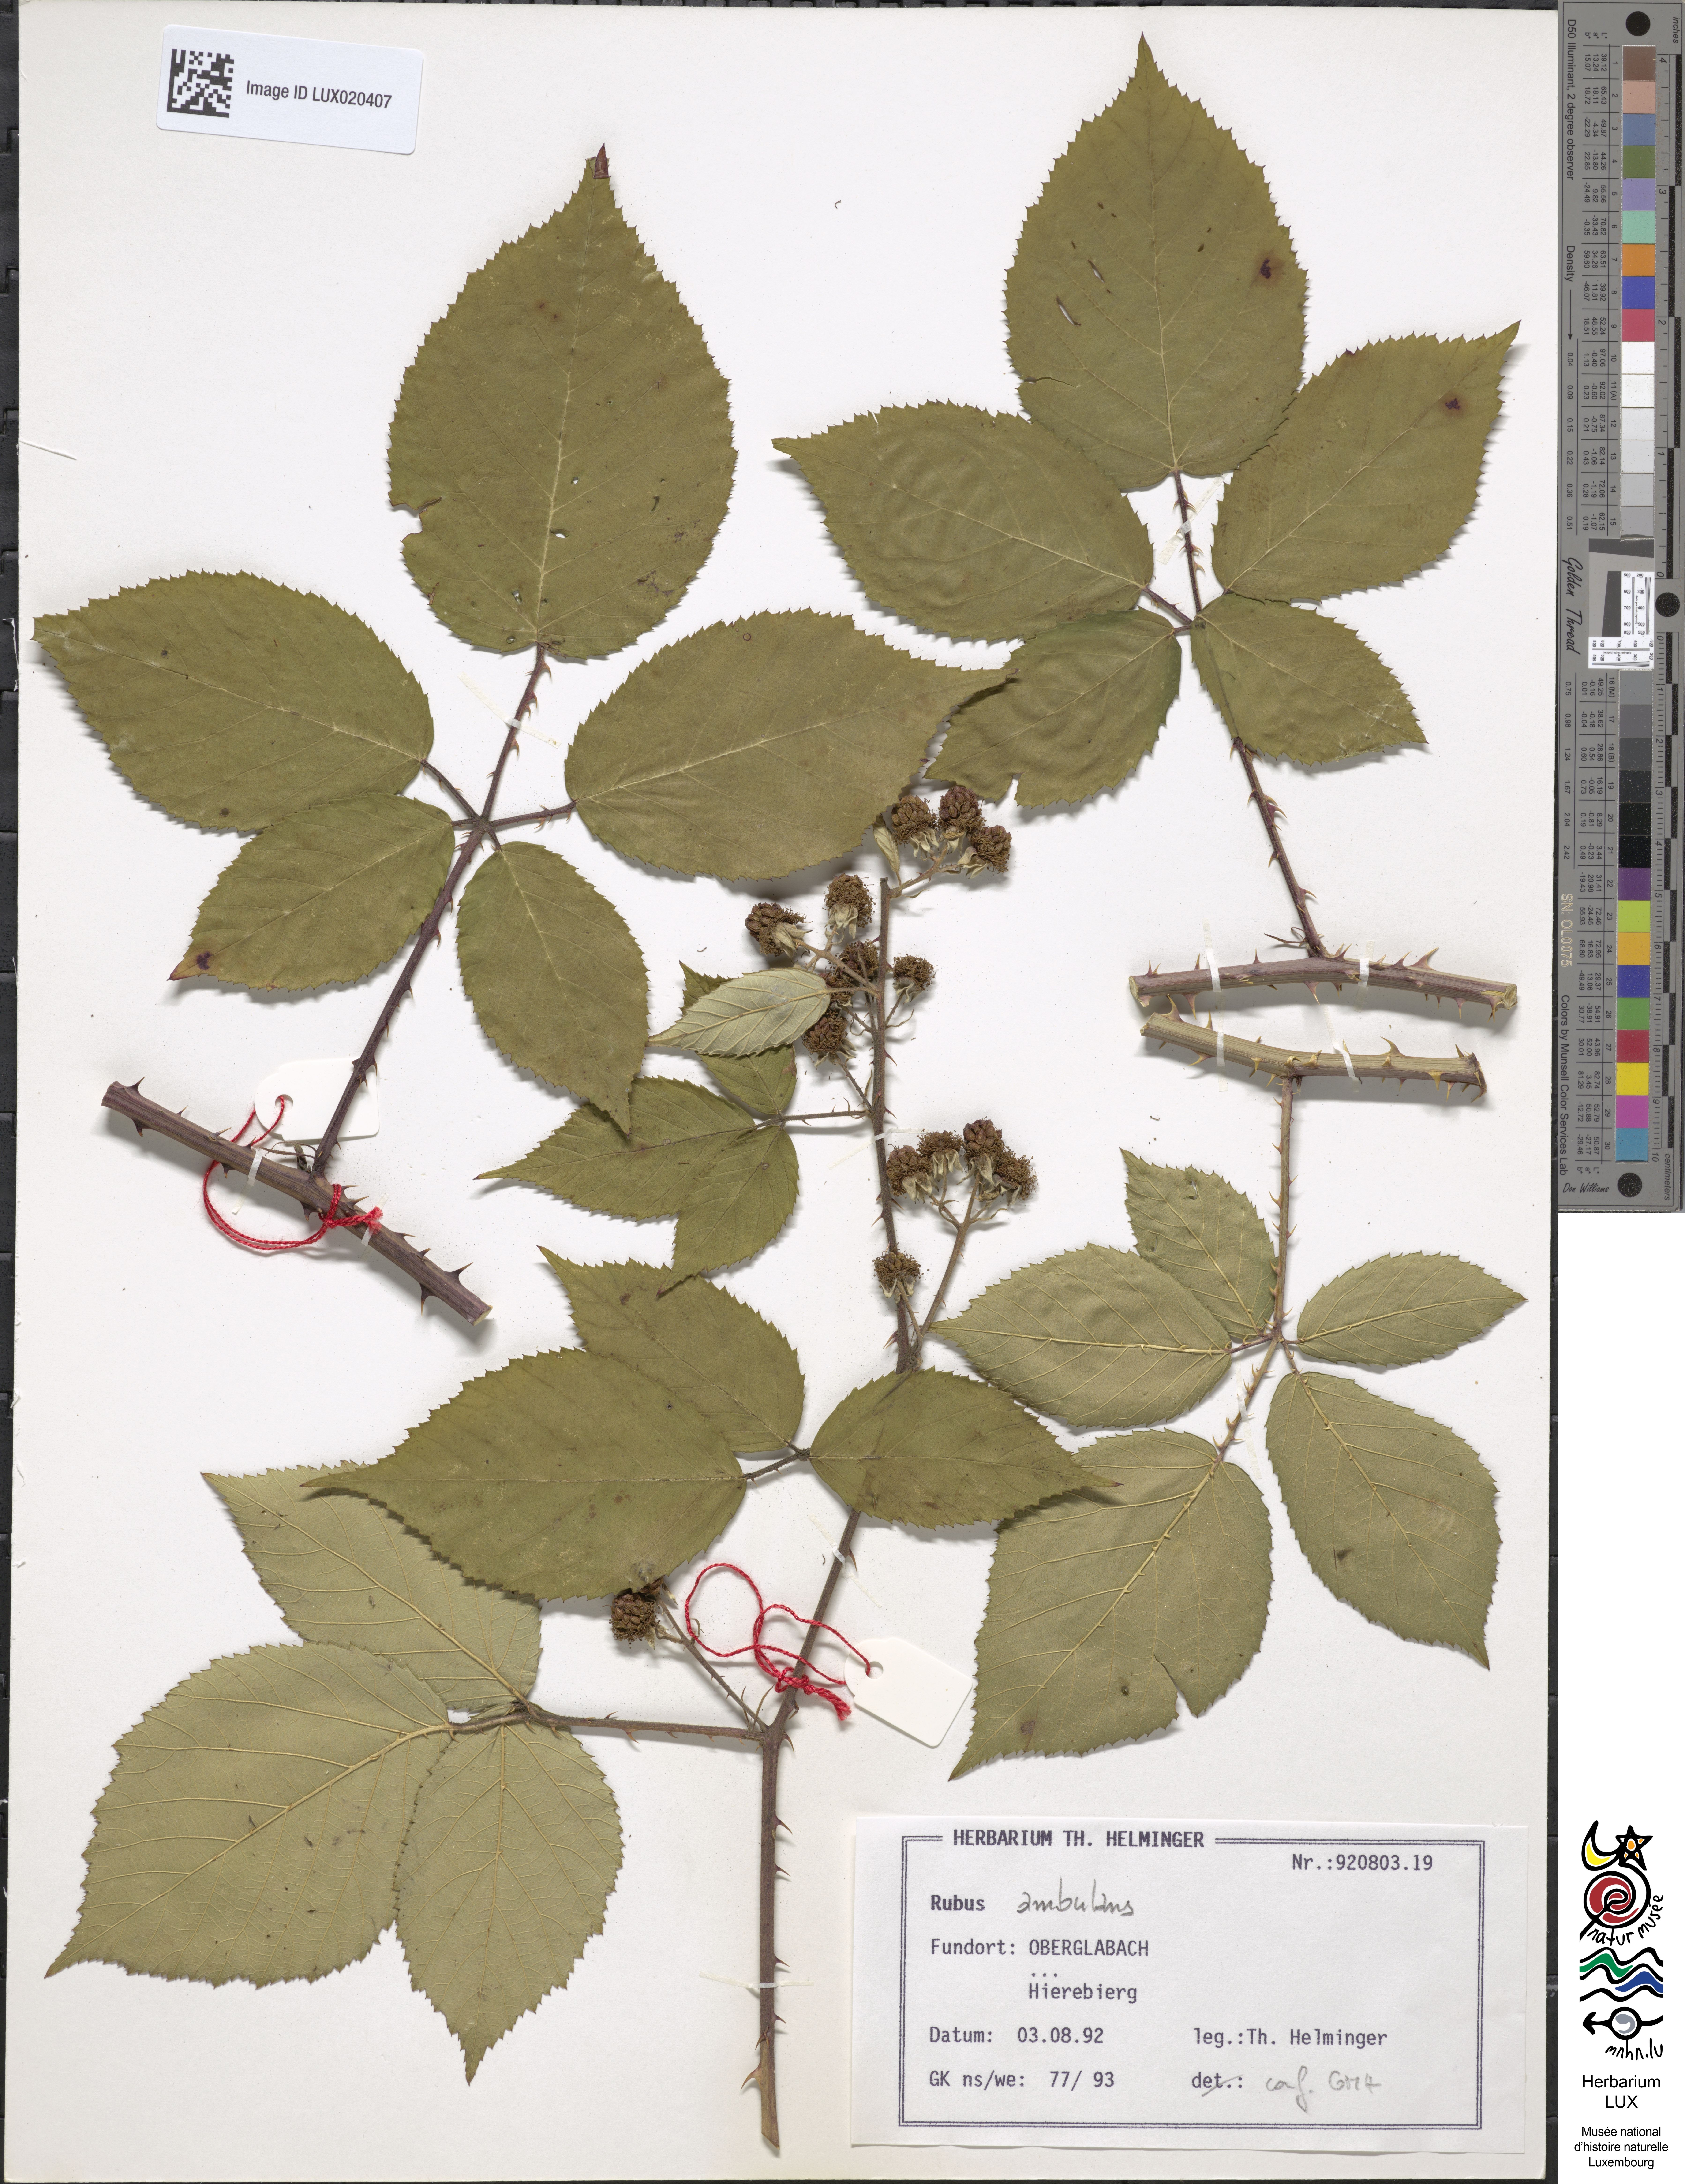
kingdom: Plantae
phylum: Tracheophyta
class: Magnoliopsida
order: Rosales
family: Rosaceae
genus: Rubus
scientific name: Rubus gremlii
